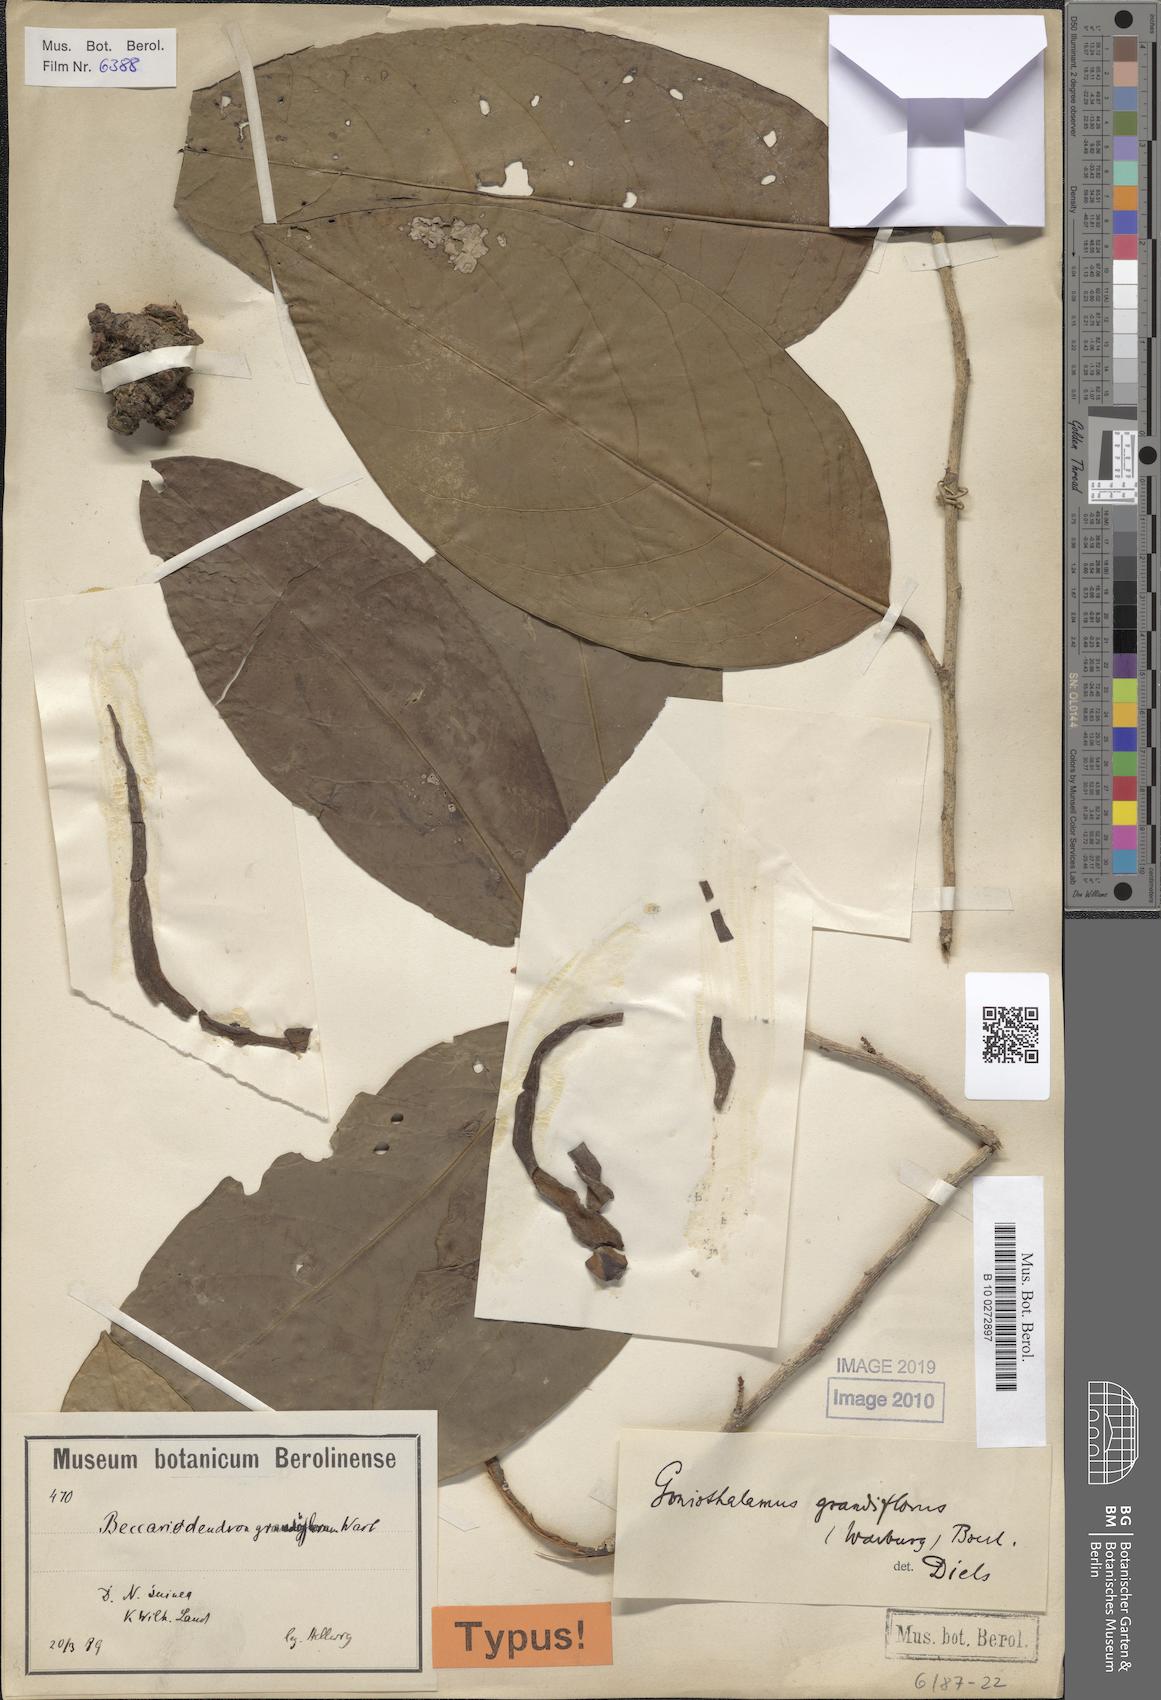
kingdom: Plantae
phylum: Tracheophyta
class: Magnoliopsida
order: Magnoliales
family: Annonaceae
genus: Goniothalamus
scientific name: Goniothalamus grandiflorus
